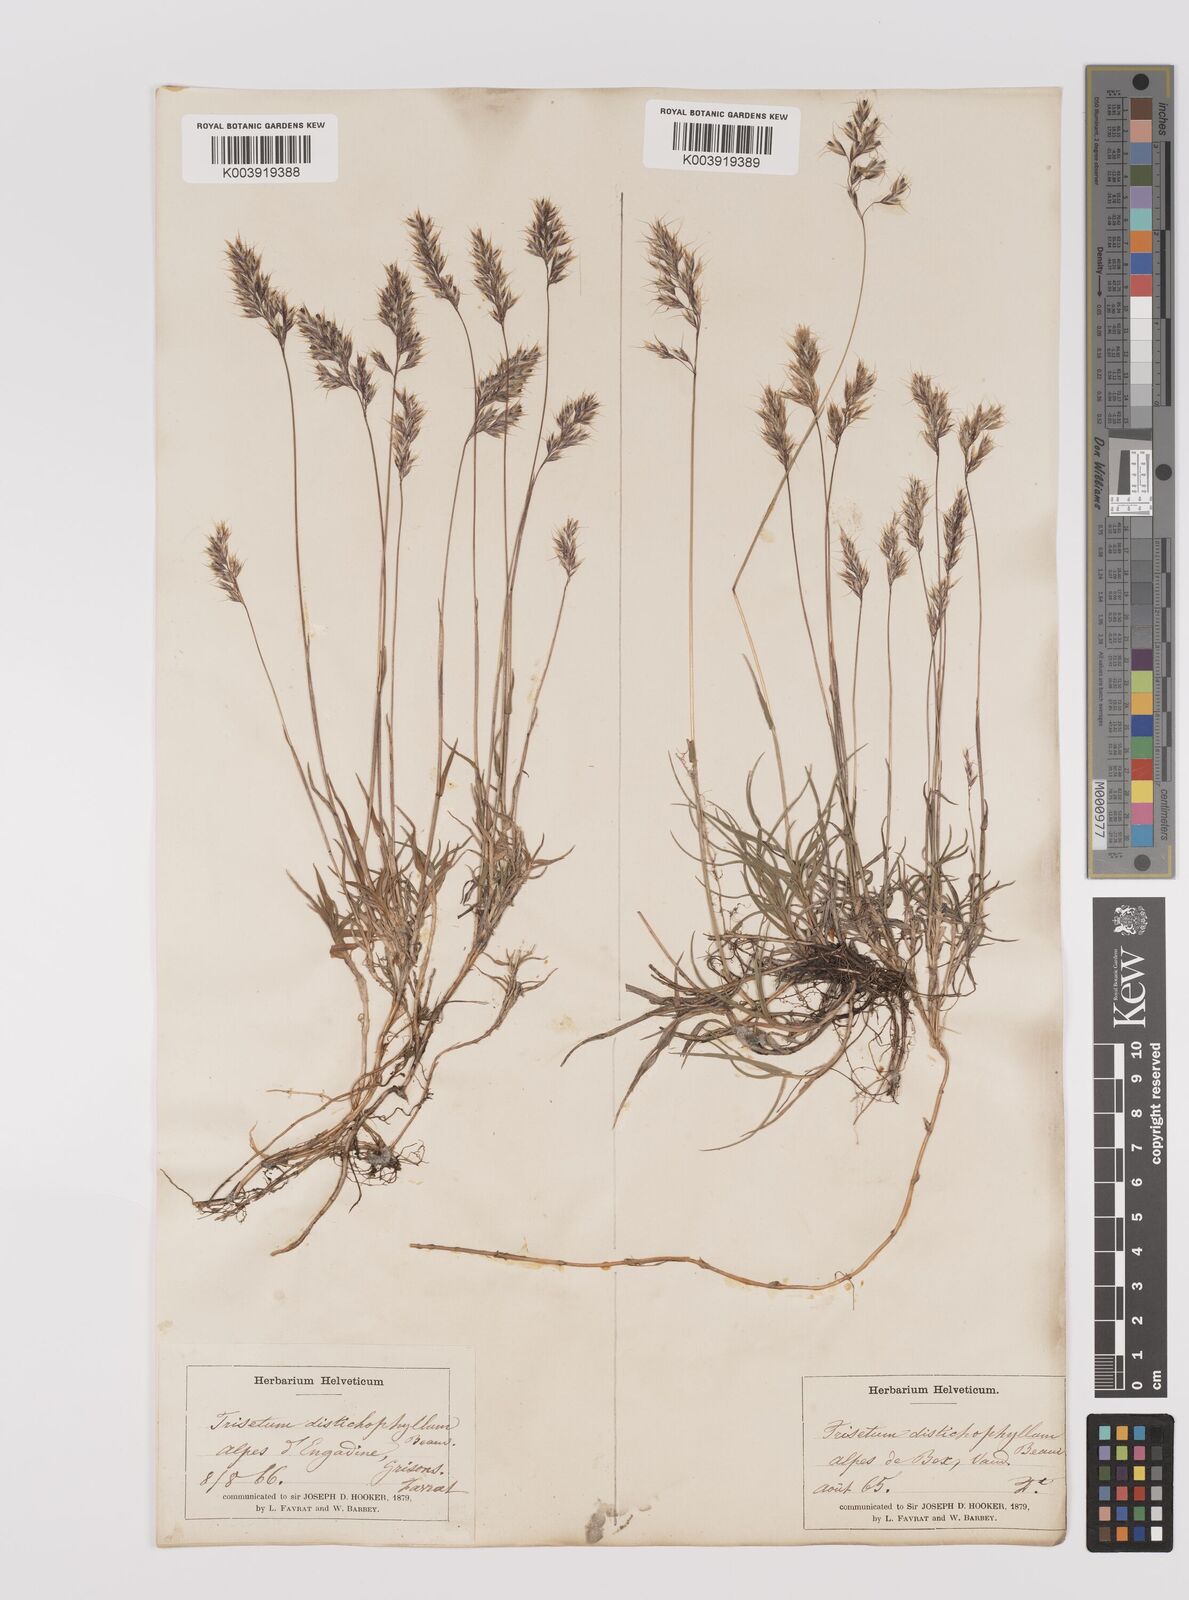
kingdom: Plantae
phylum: Tracheophyta
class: Liliopsida
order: Poales
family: Poaceae
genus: Acrospelion
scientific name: Acrospelion distichophyllum
